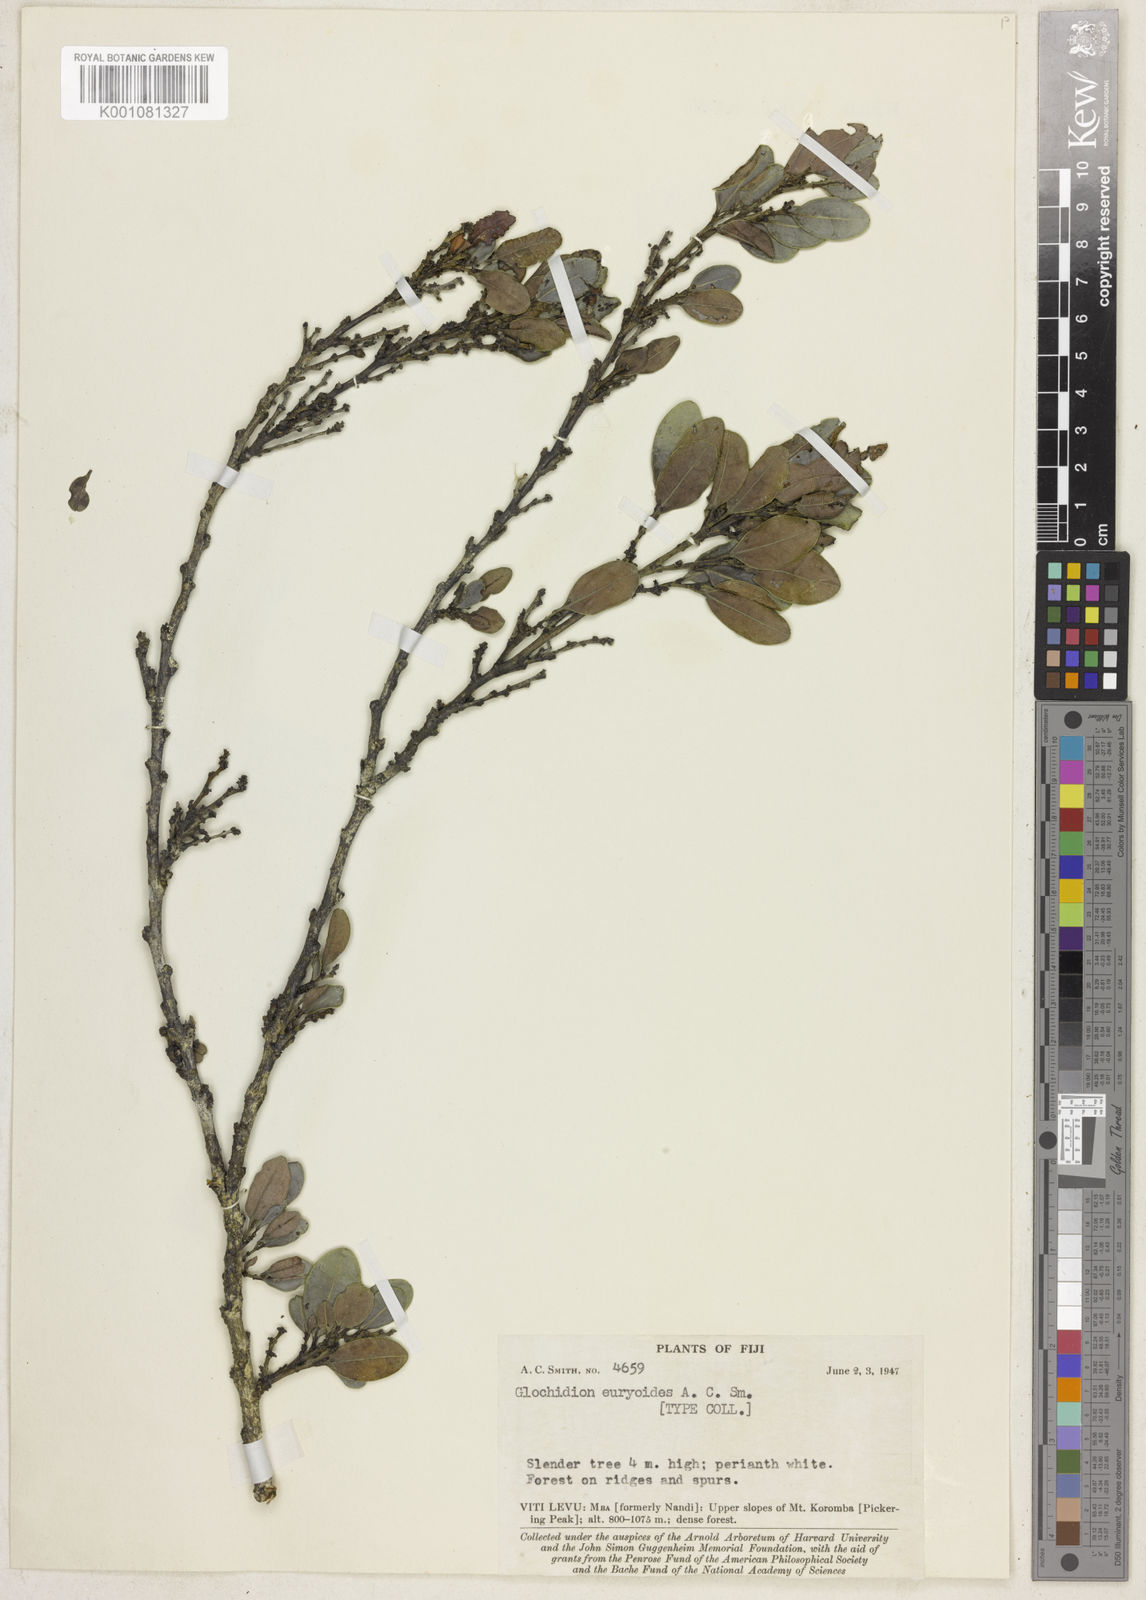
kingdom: Plantae
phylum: Tracheophyta
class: Magnoliopsida
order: Malpighiales
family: Phyllanthaceae
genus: Glochidion
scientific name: Glochidion euryoides
